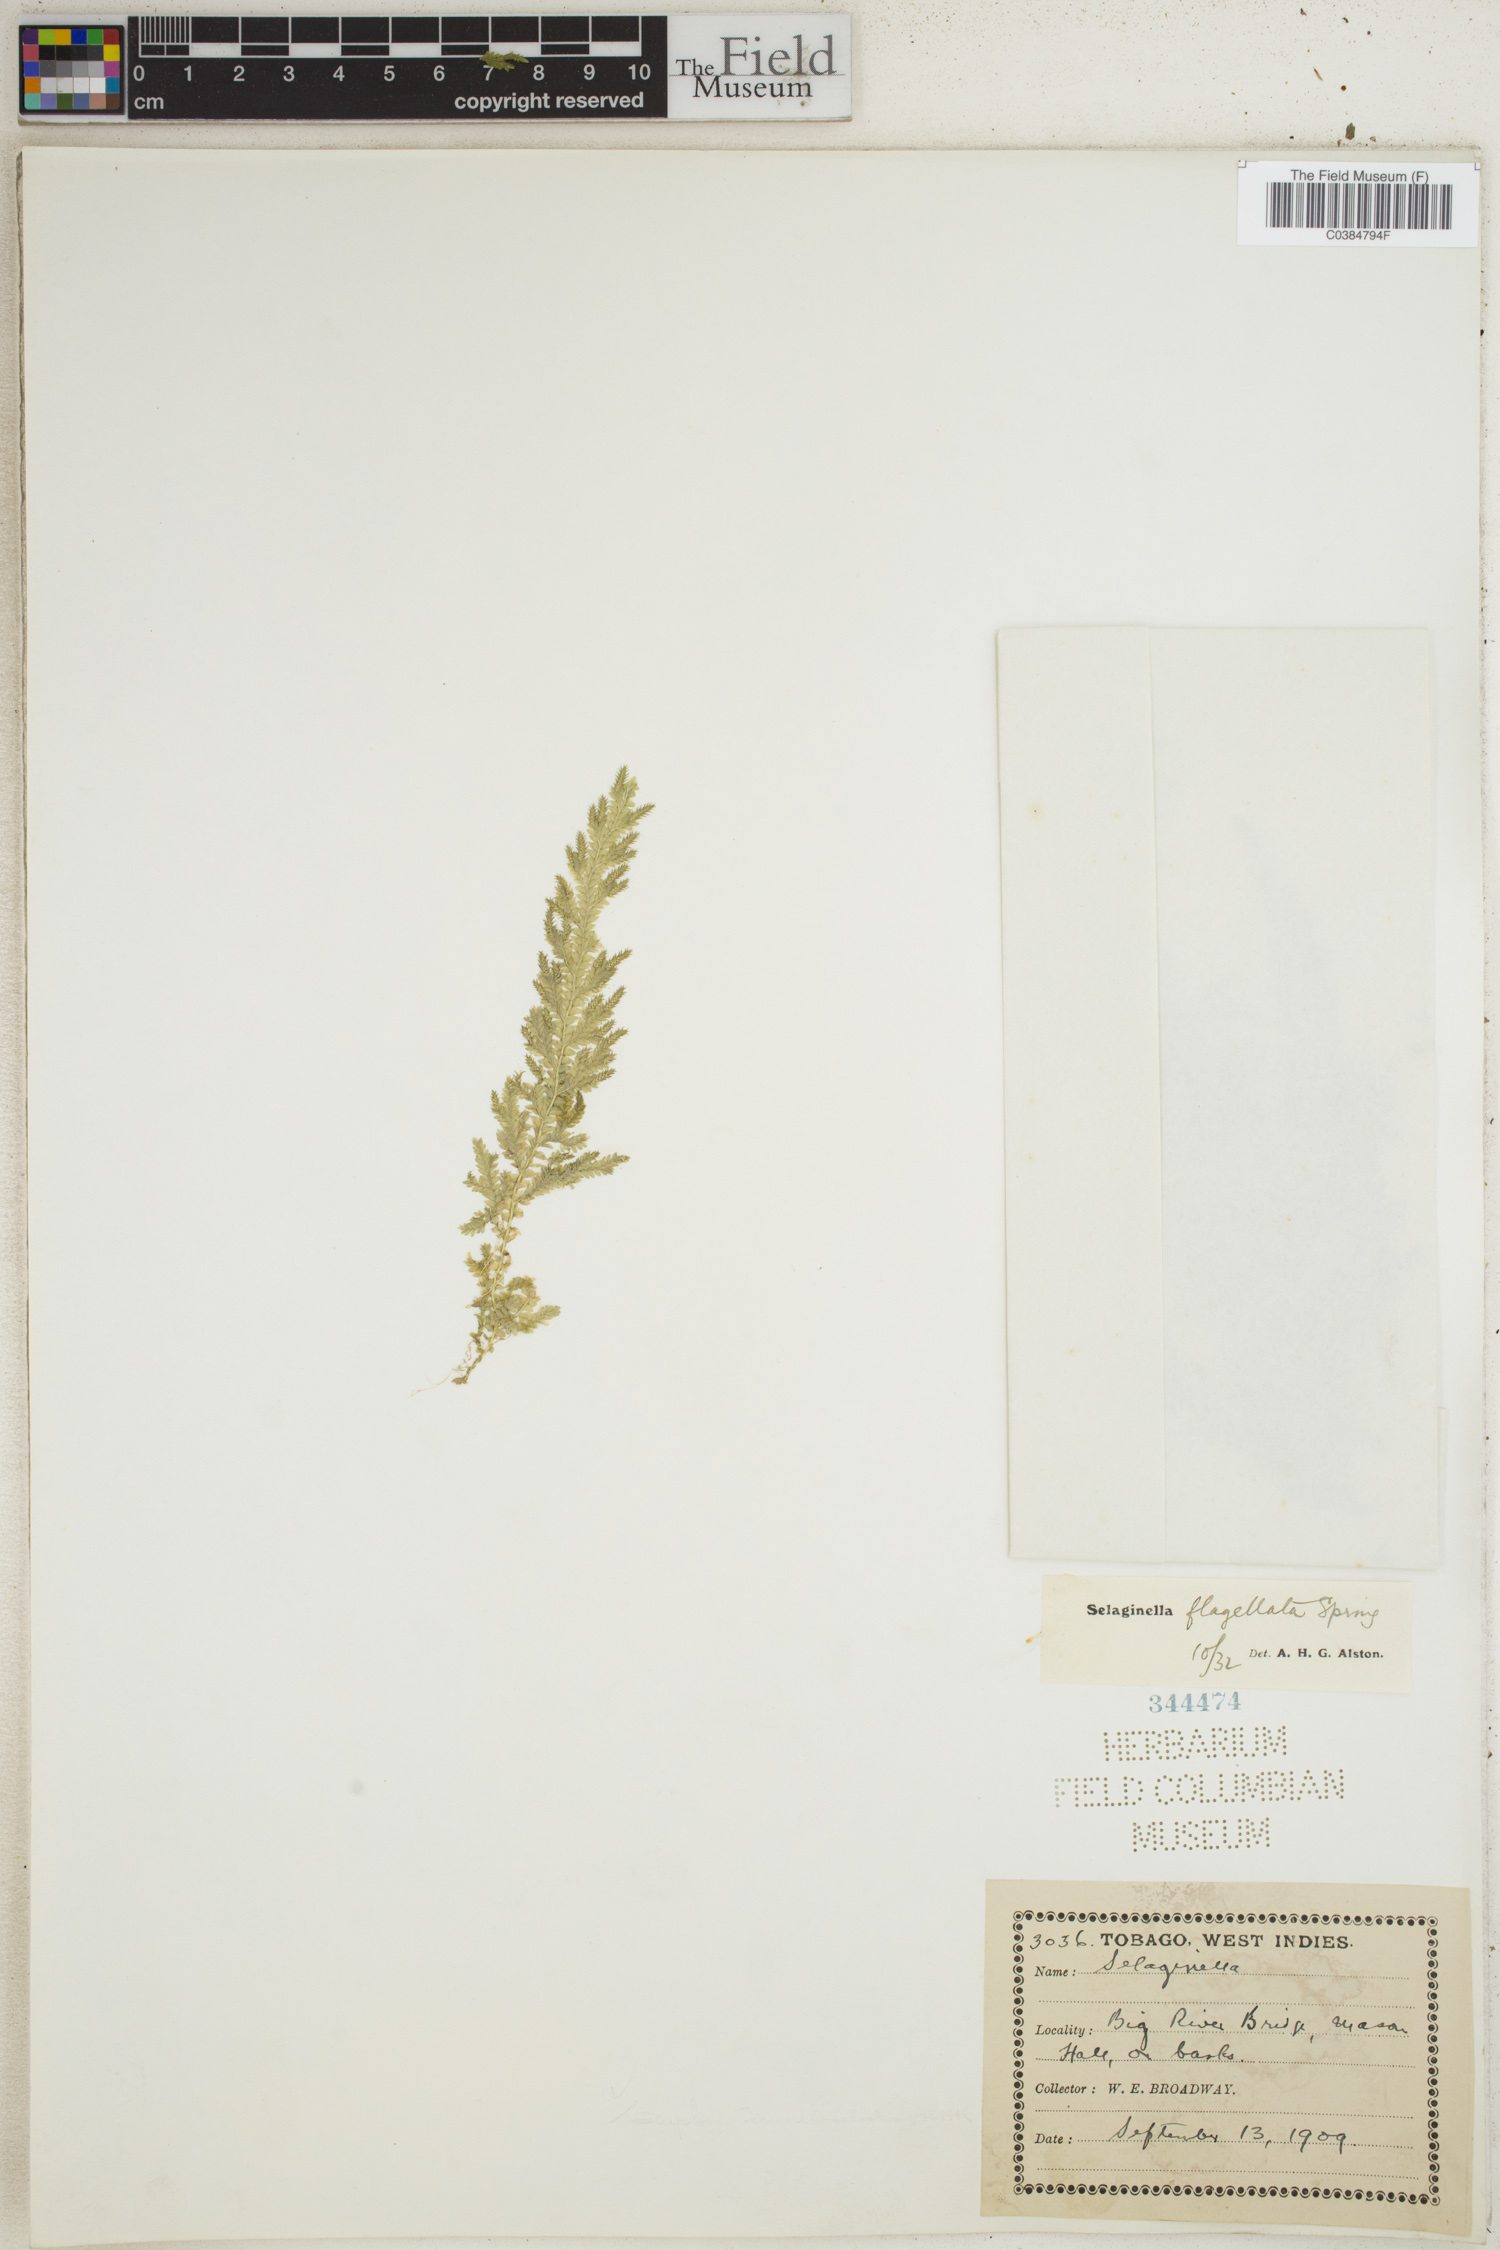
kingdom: Plantae
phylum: Tracheophyta
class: Lycopodiopsida
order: Selaginellales
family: Selaginellaceae
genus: Selaginella
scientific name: Selaginella flagellata
